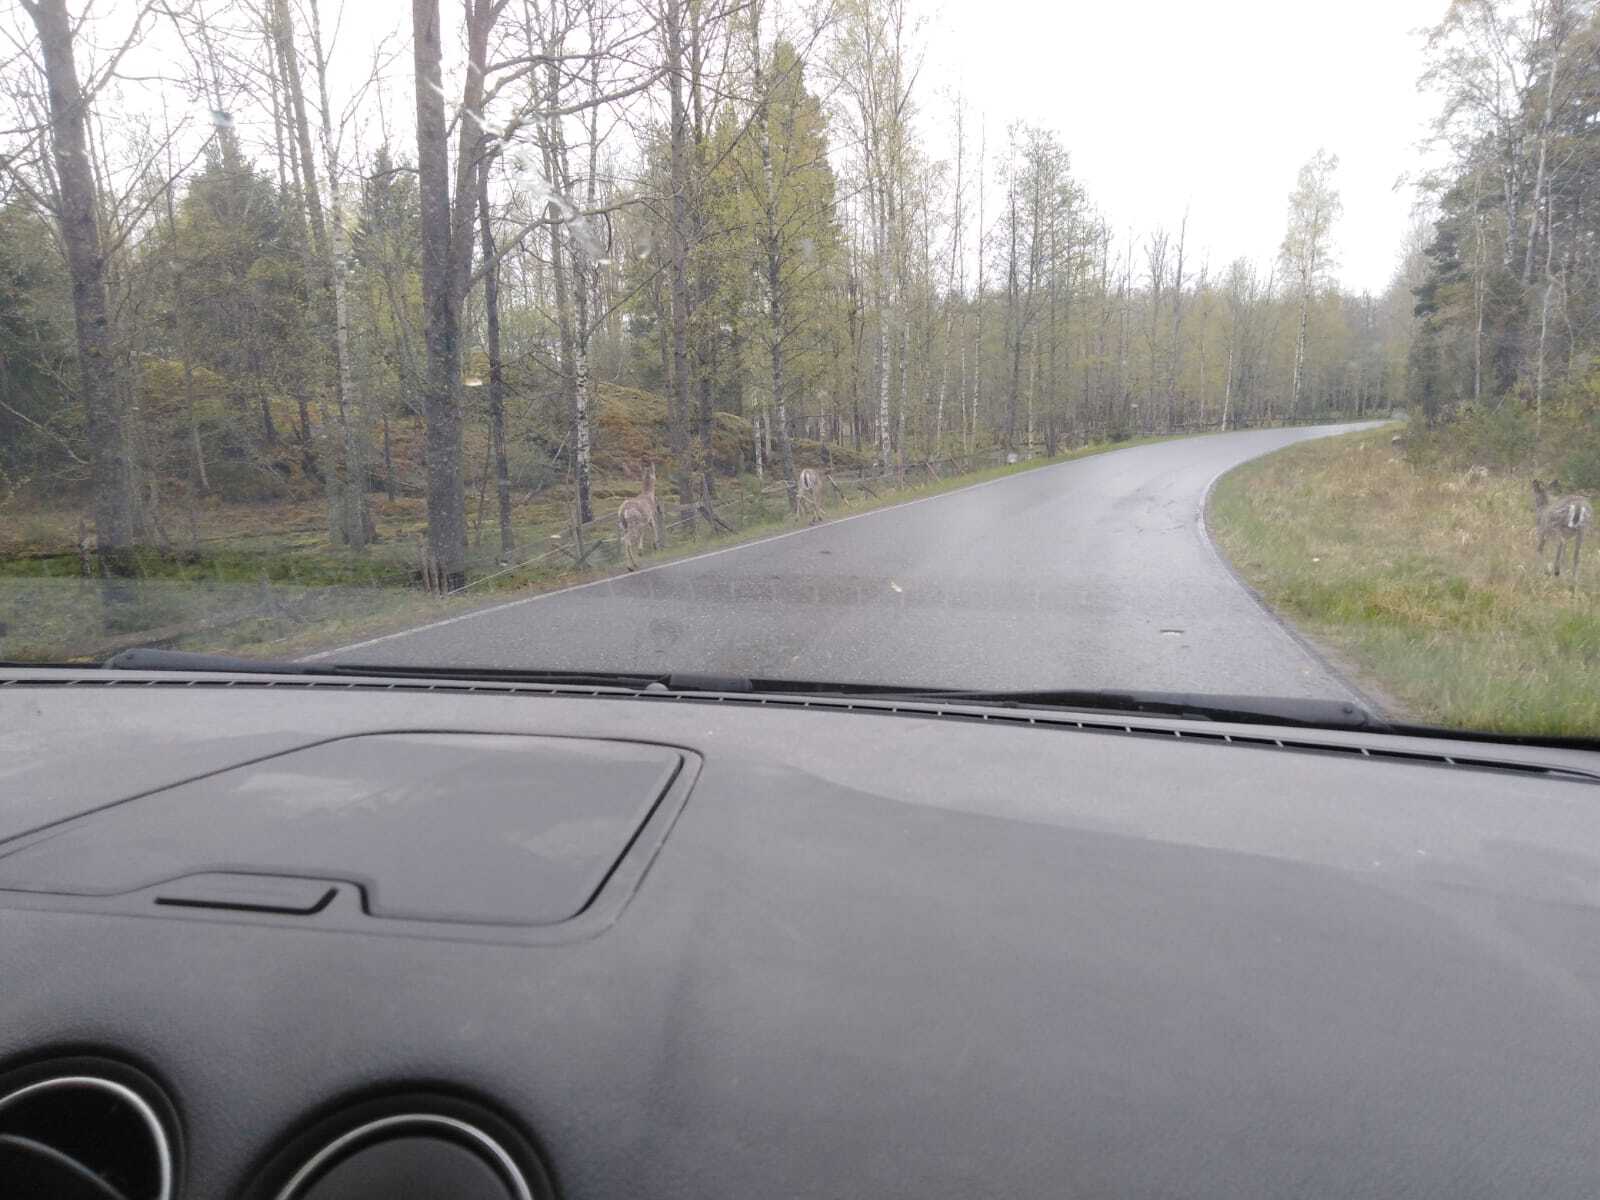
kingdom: Animalia
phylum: Chordata
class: Mammalia
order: Artiodactyla
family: Cervidae
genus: Odocoileus
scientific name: Odocoileus virginianus
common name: White-tailed deer
